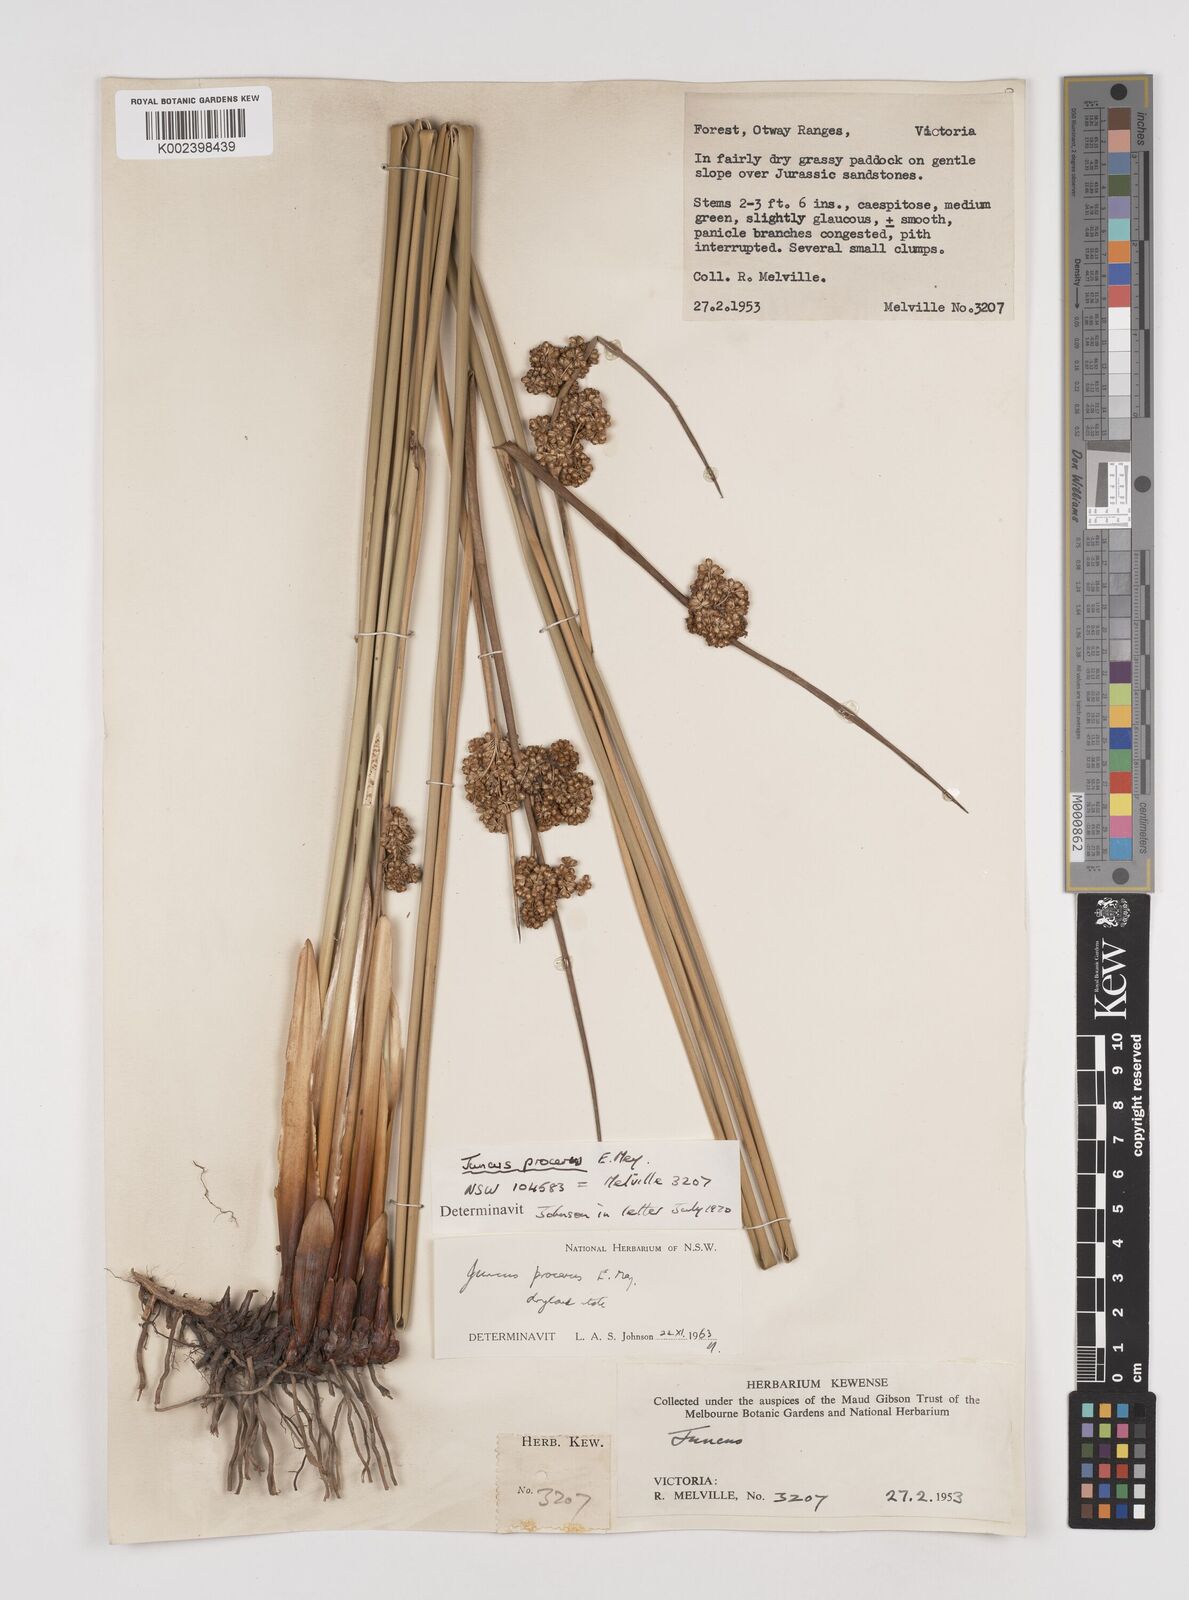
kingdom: Plantae
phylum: Tracheophyta
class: Liliopsida
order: Poales
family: Juncaceae
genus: Juncus
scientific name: Juncus procerus
